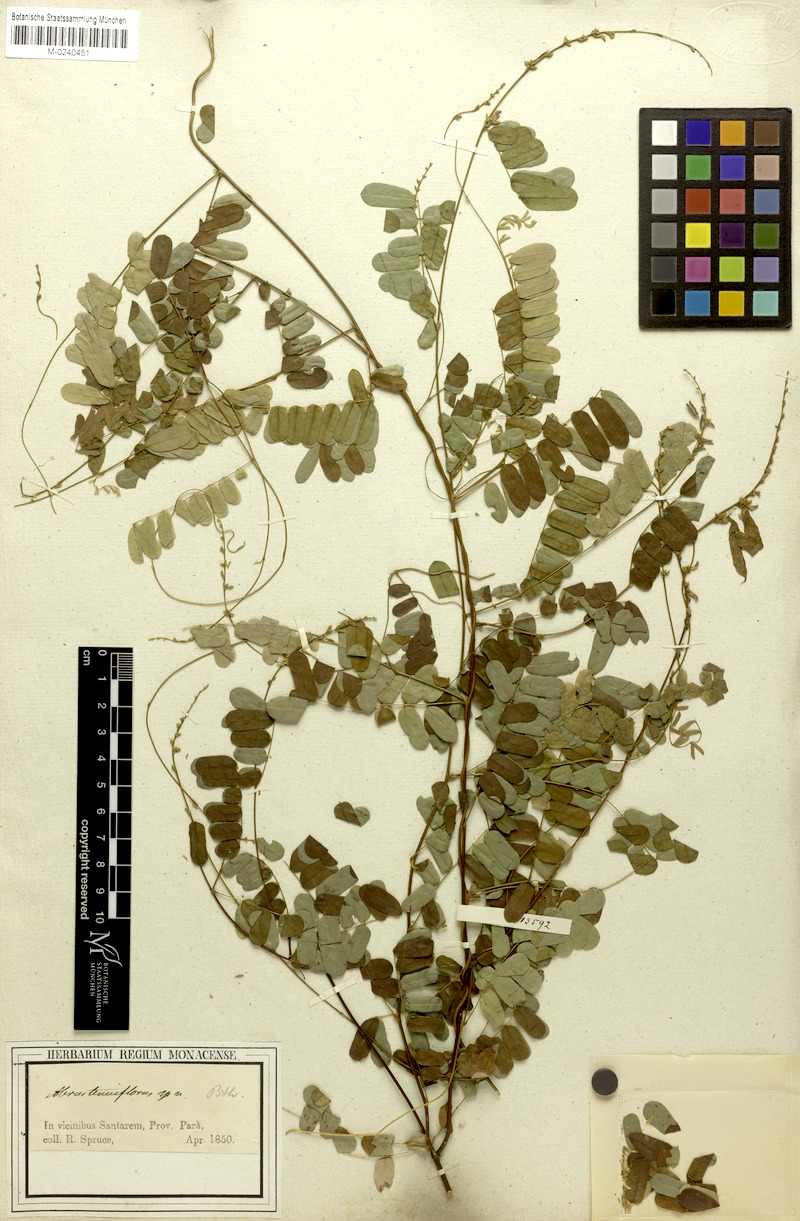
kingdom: Plantae
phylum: Tracheophyta
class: Magnoliopsida
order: Fabales
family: Fabaceae
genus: Abrus
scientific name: Abrus melanospermus
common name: Licorice-root
